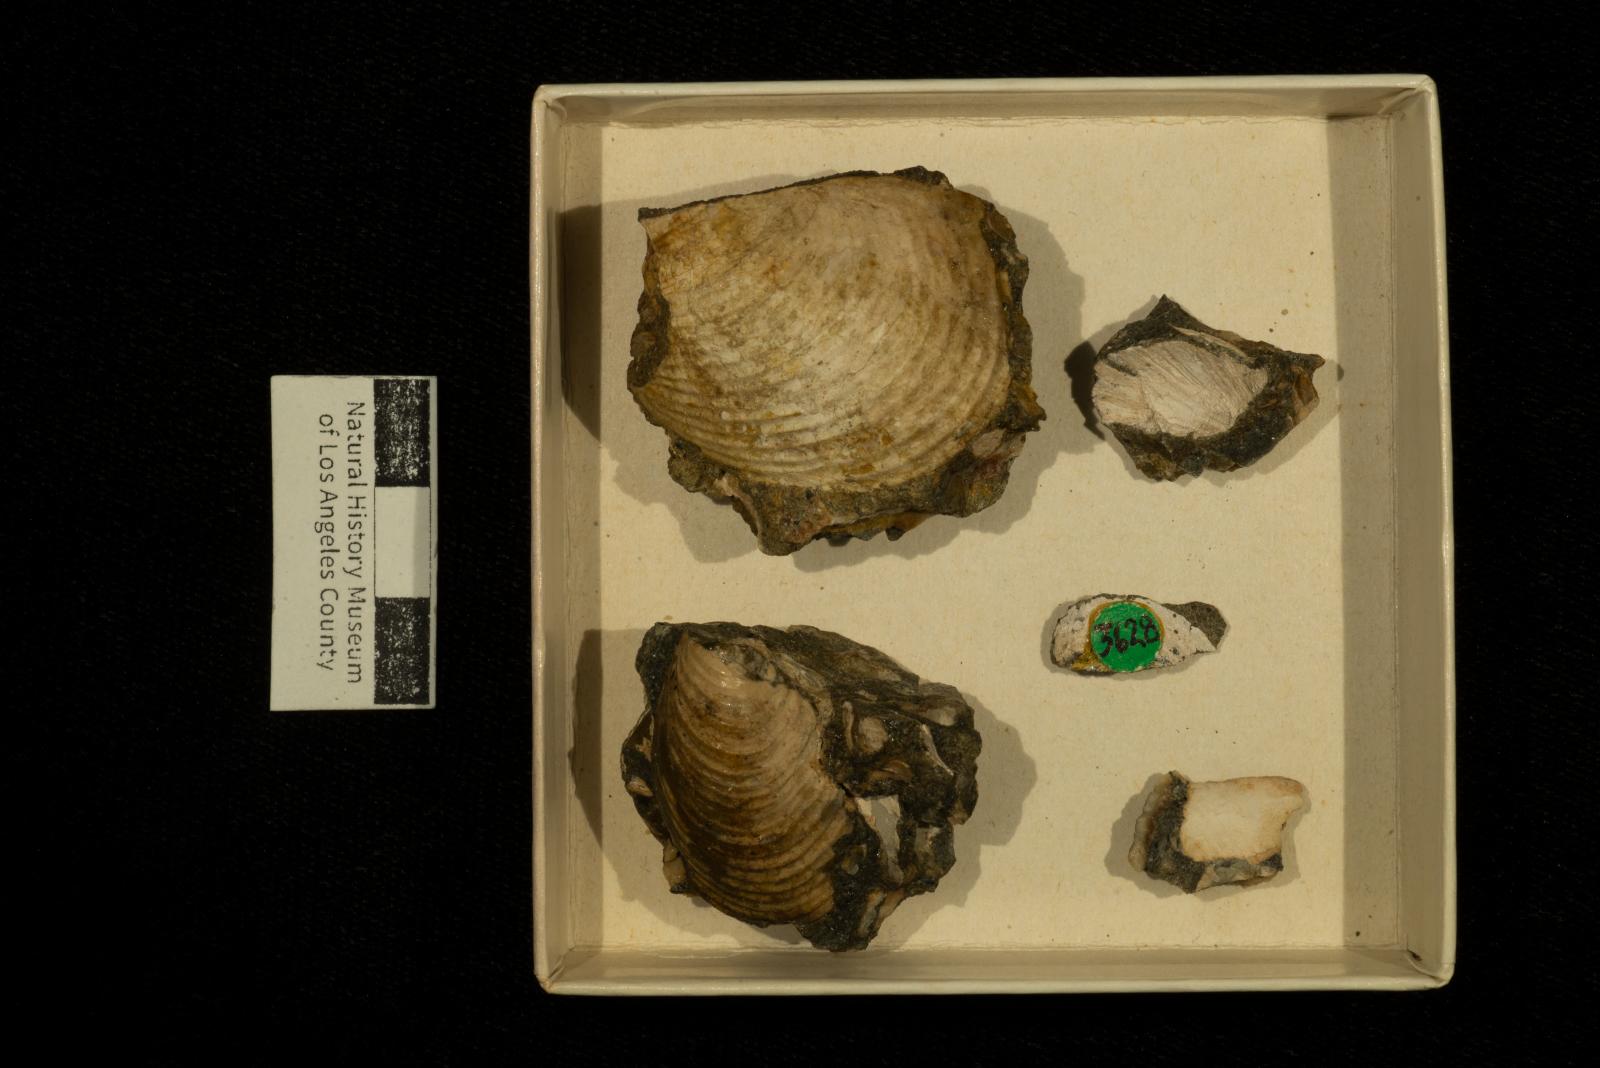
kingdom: Animalia
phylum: Mollusca
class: Bivalvia
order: Myalinida
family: Inoceramidae
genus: Sphenoceramus
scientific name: Sphenoceramus naumanni
